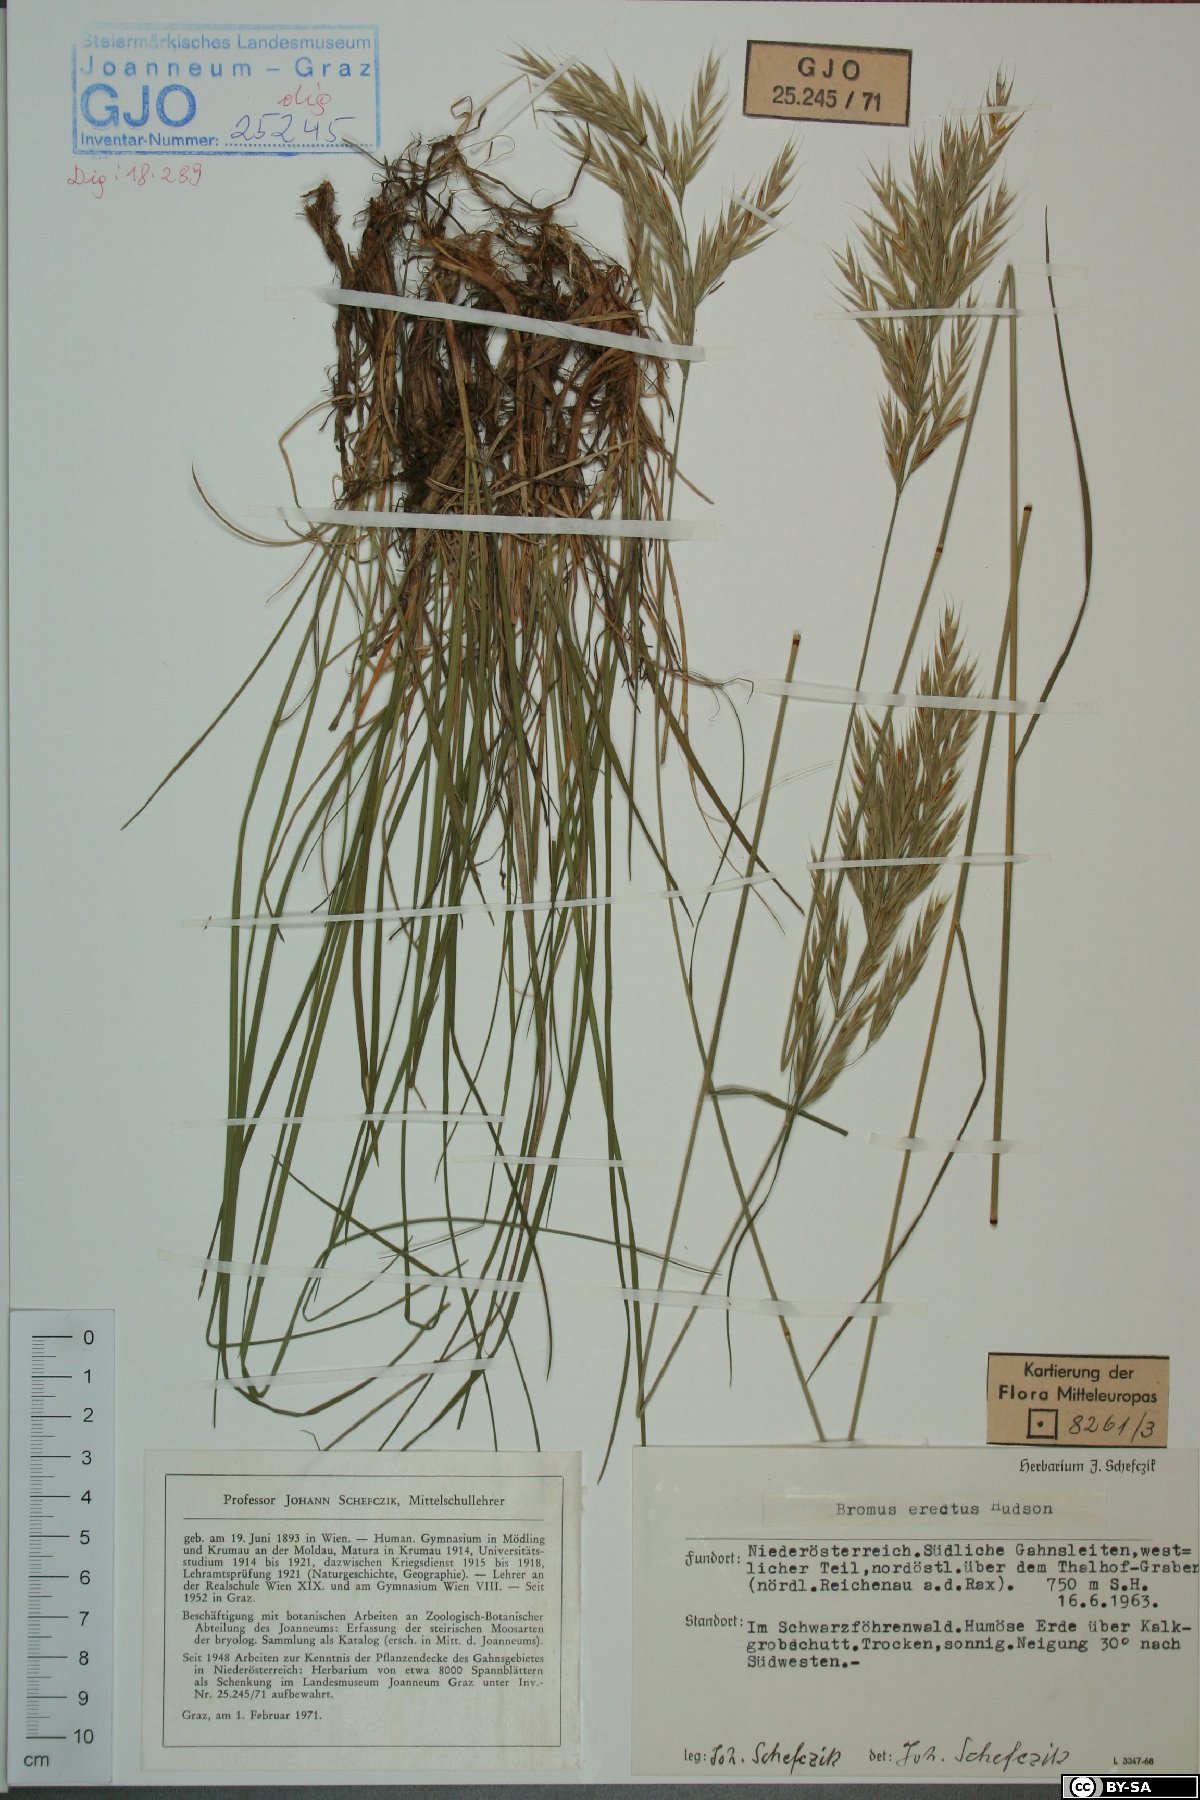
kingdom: Plantae
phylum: Tracheophyta
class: Liliopsida
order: Poales
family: Poaceae
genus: Bromus
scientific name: Bromus erectus
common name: Erect brome
